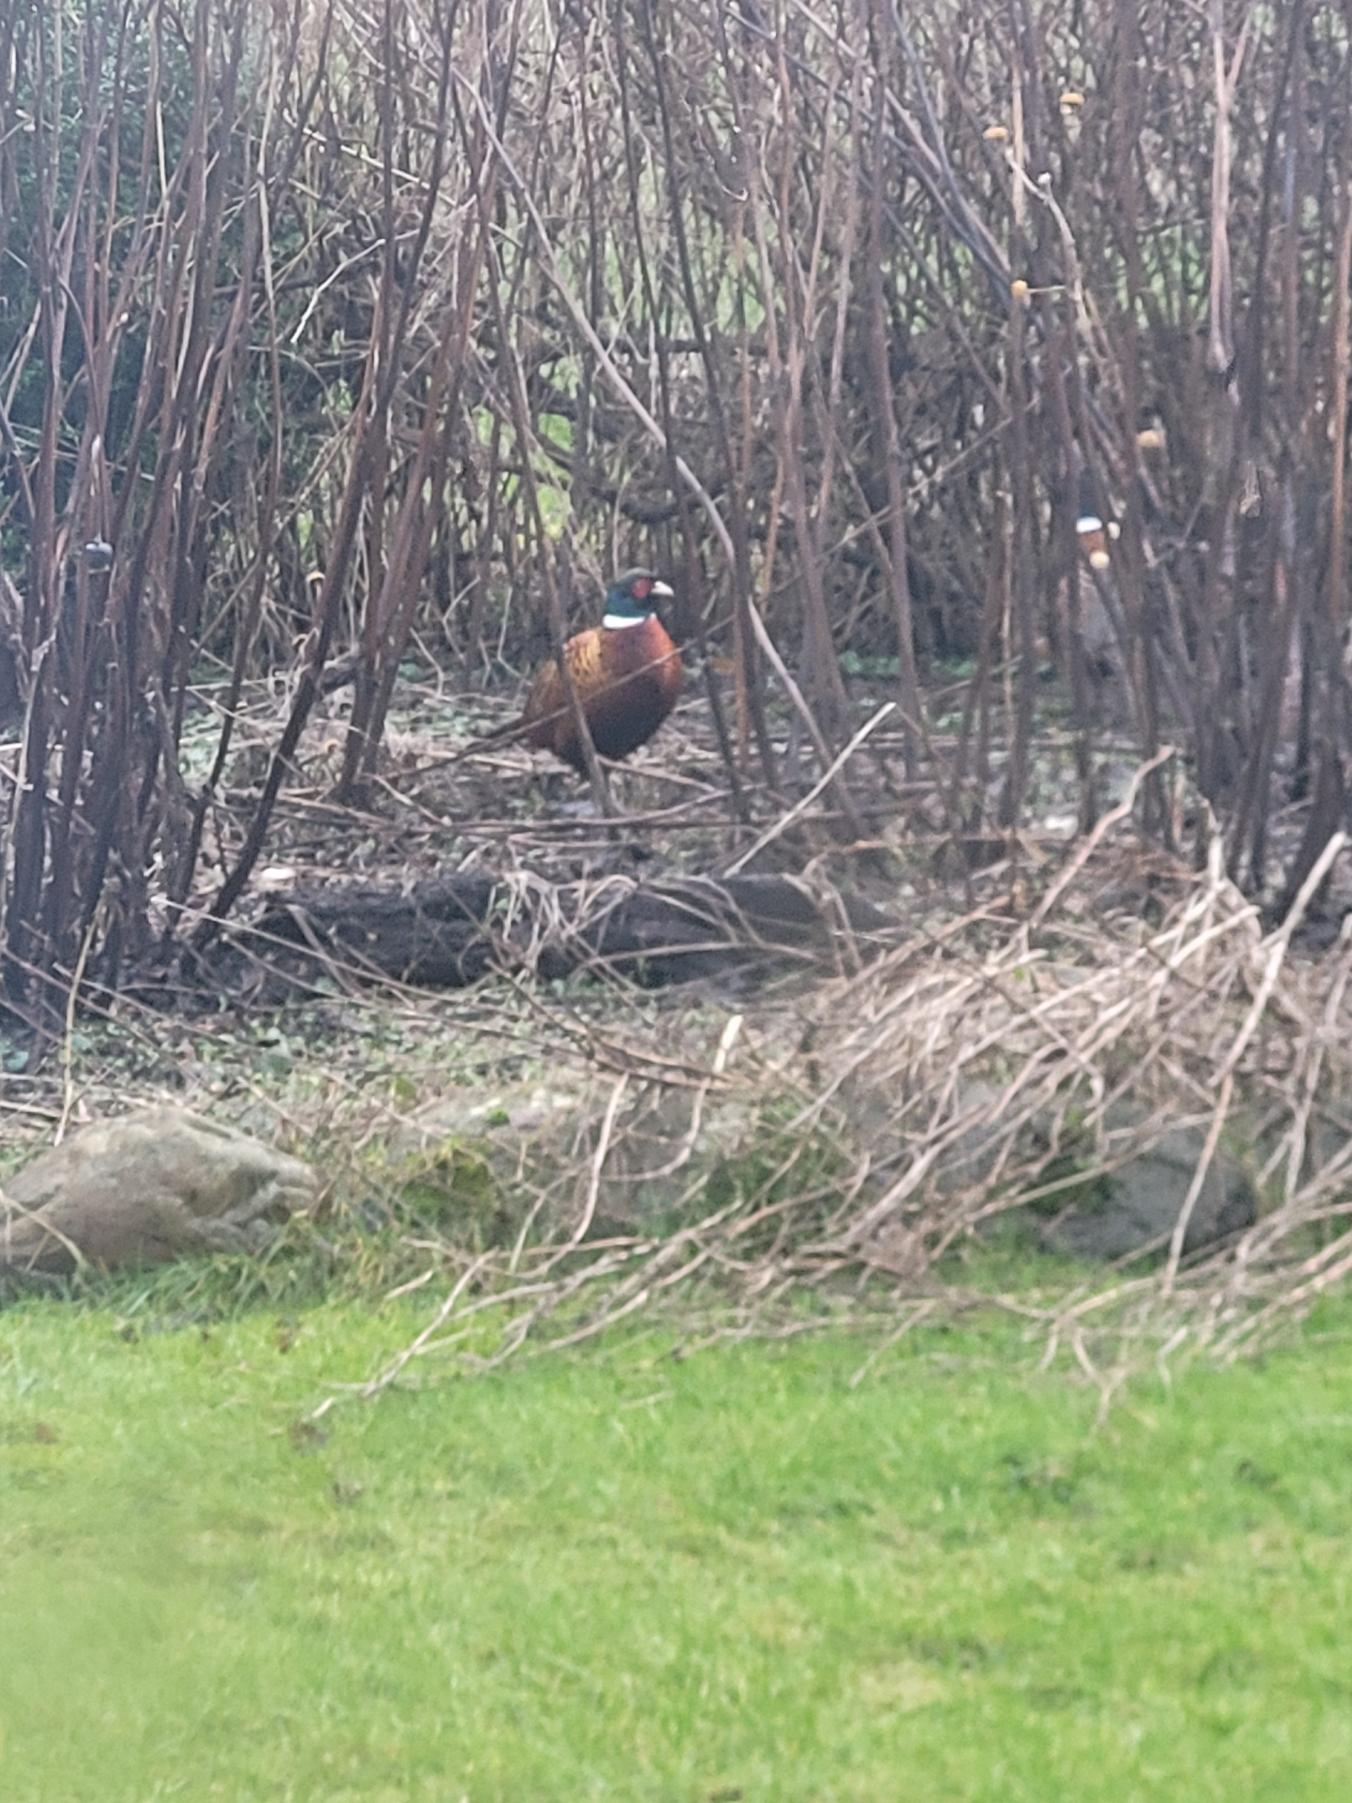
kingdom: Animalia
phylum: Chordata
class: Aves
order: Galliformes
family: Phasianidae
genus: Phasianus
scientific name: Phasianus colchicus
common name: Fasan
